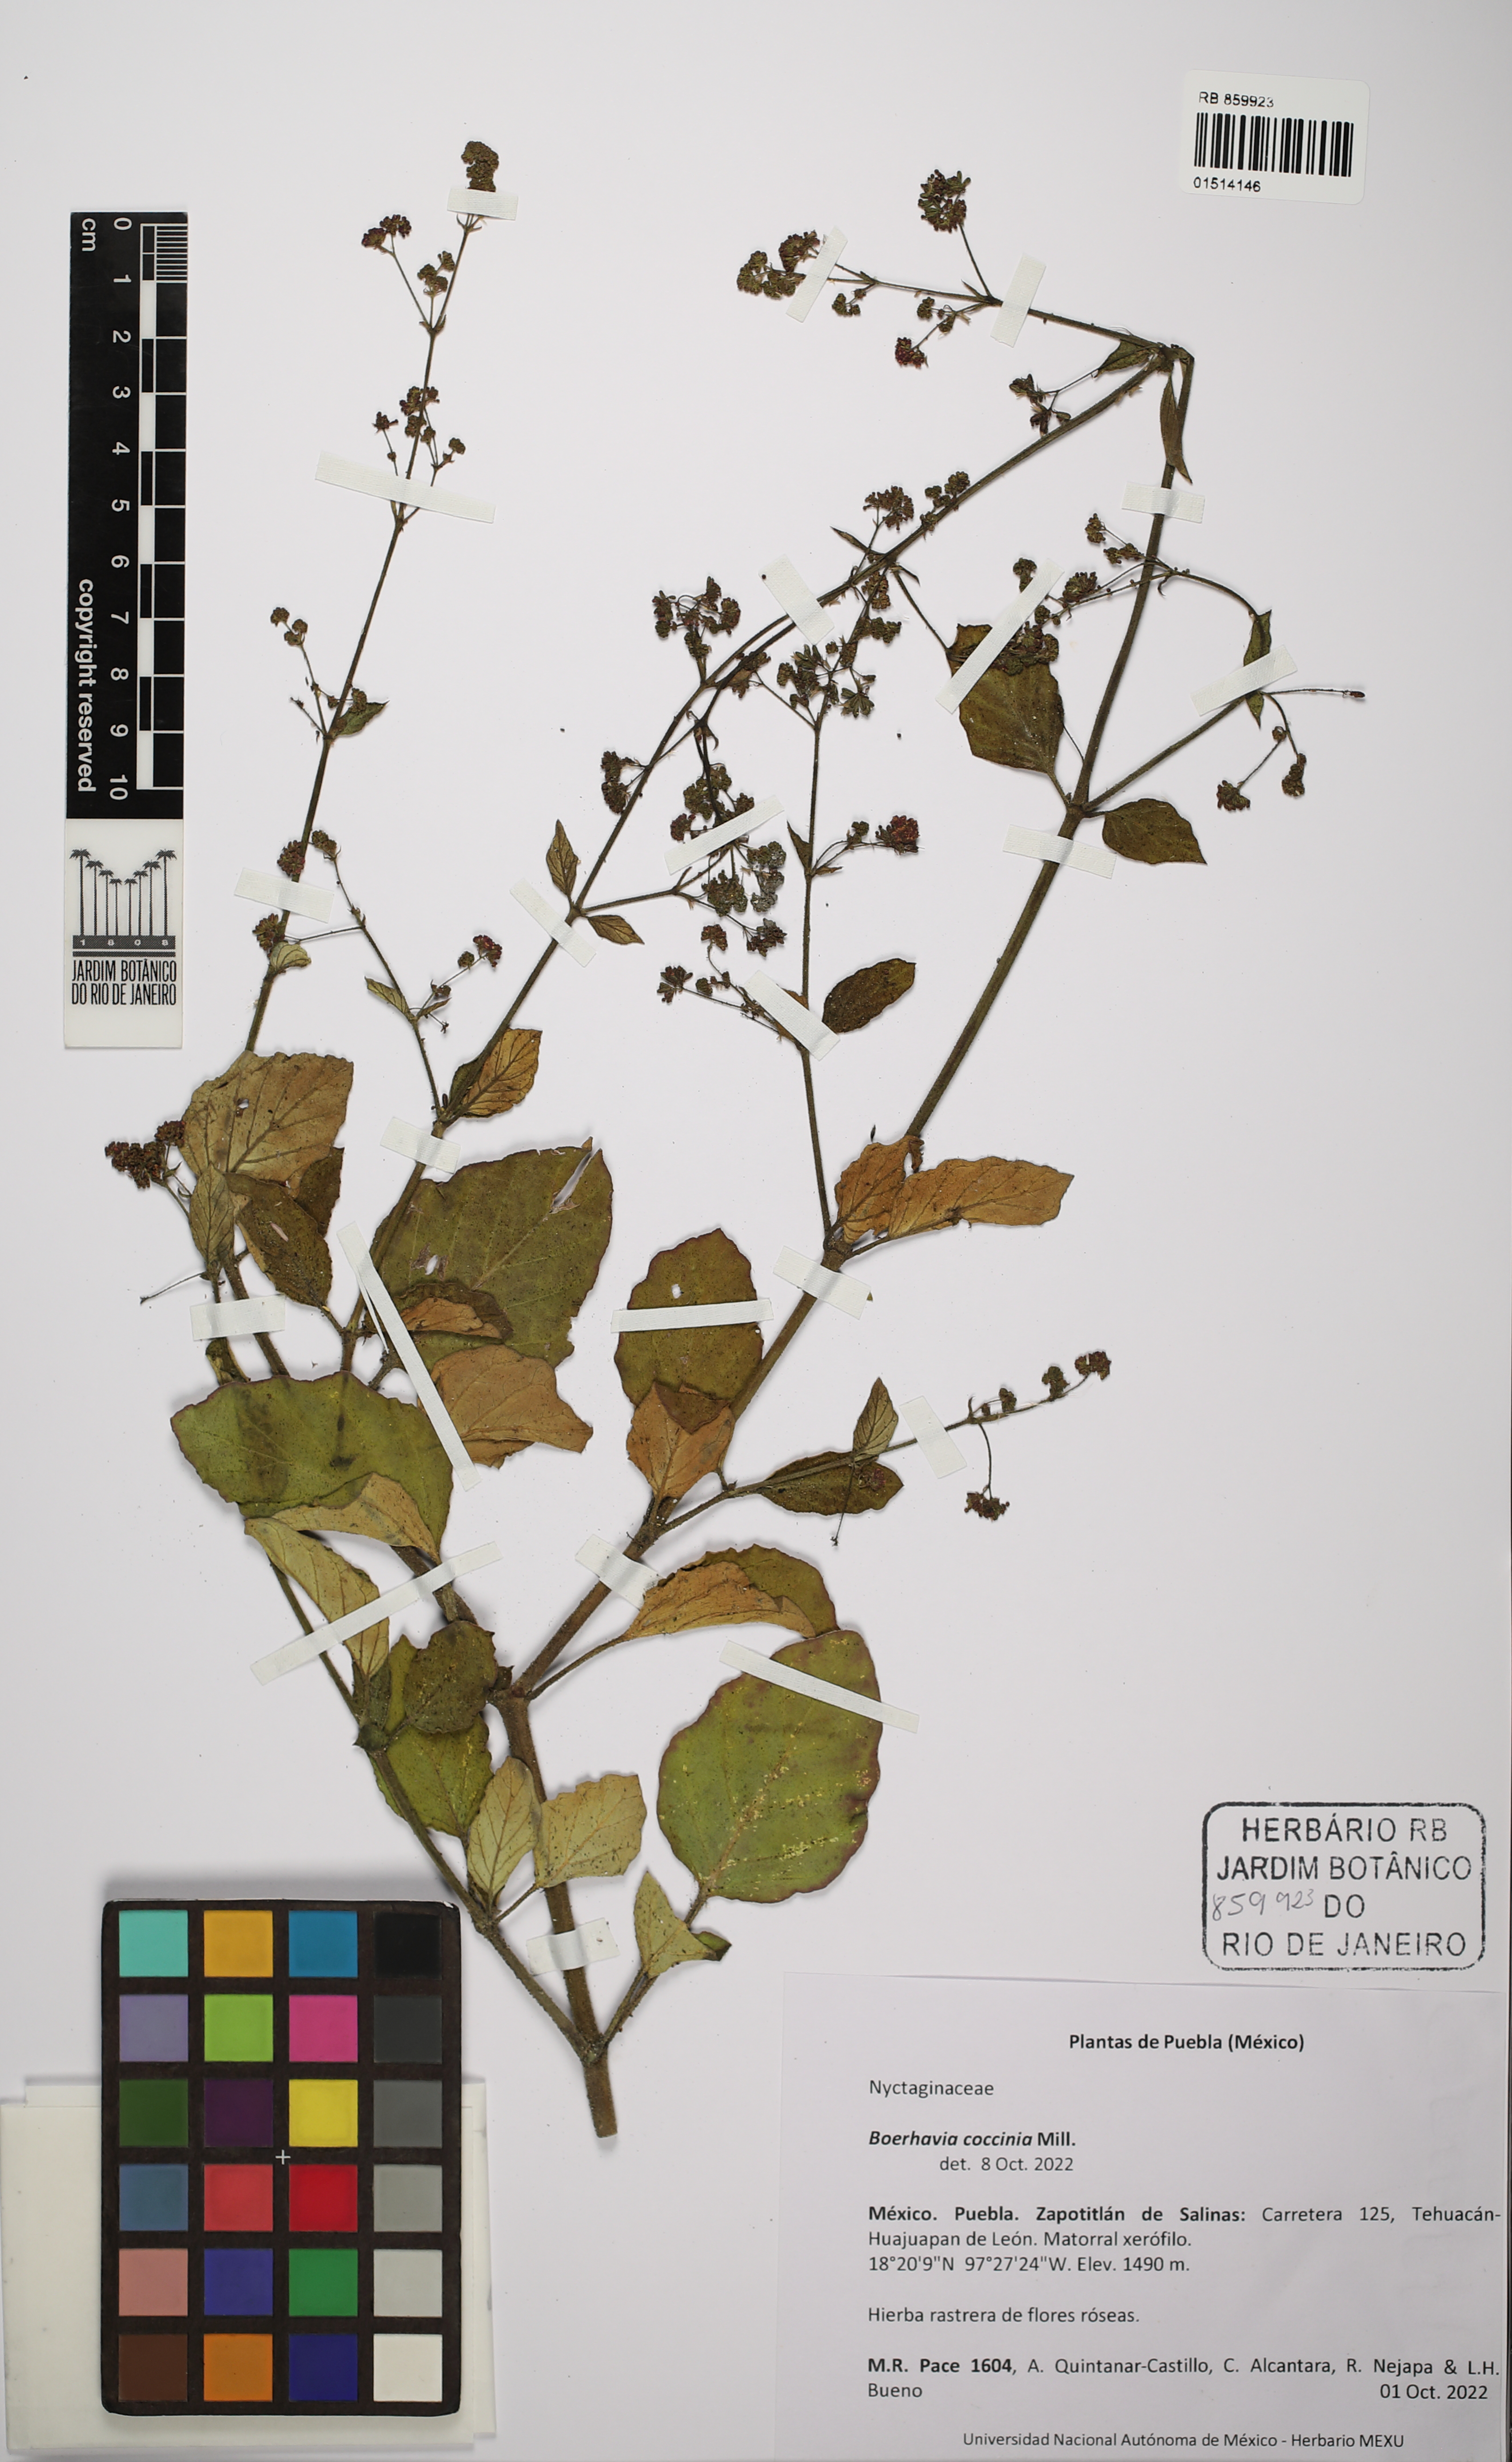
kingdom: Plantae
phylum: Tracheophyta
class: Magnoliopsida
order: Caryophyllales
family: Nyctaginaceae
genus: Boerhavia
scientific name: Boerhavia coccinea
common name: Scarlet spiderling
